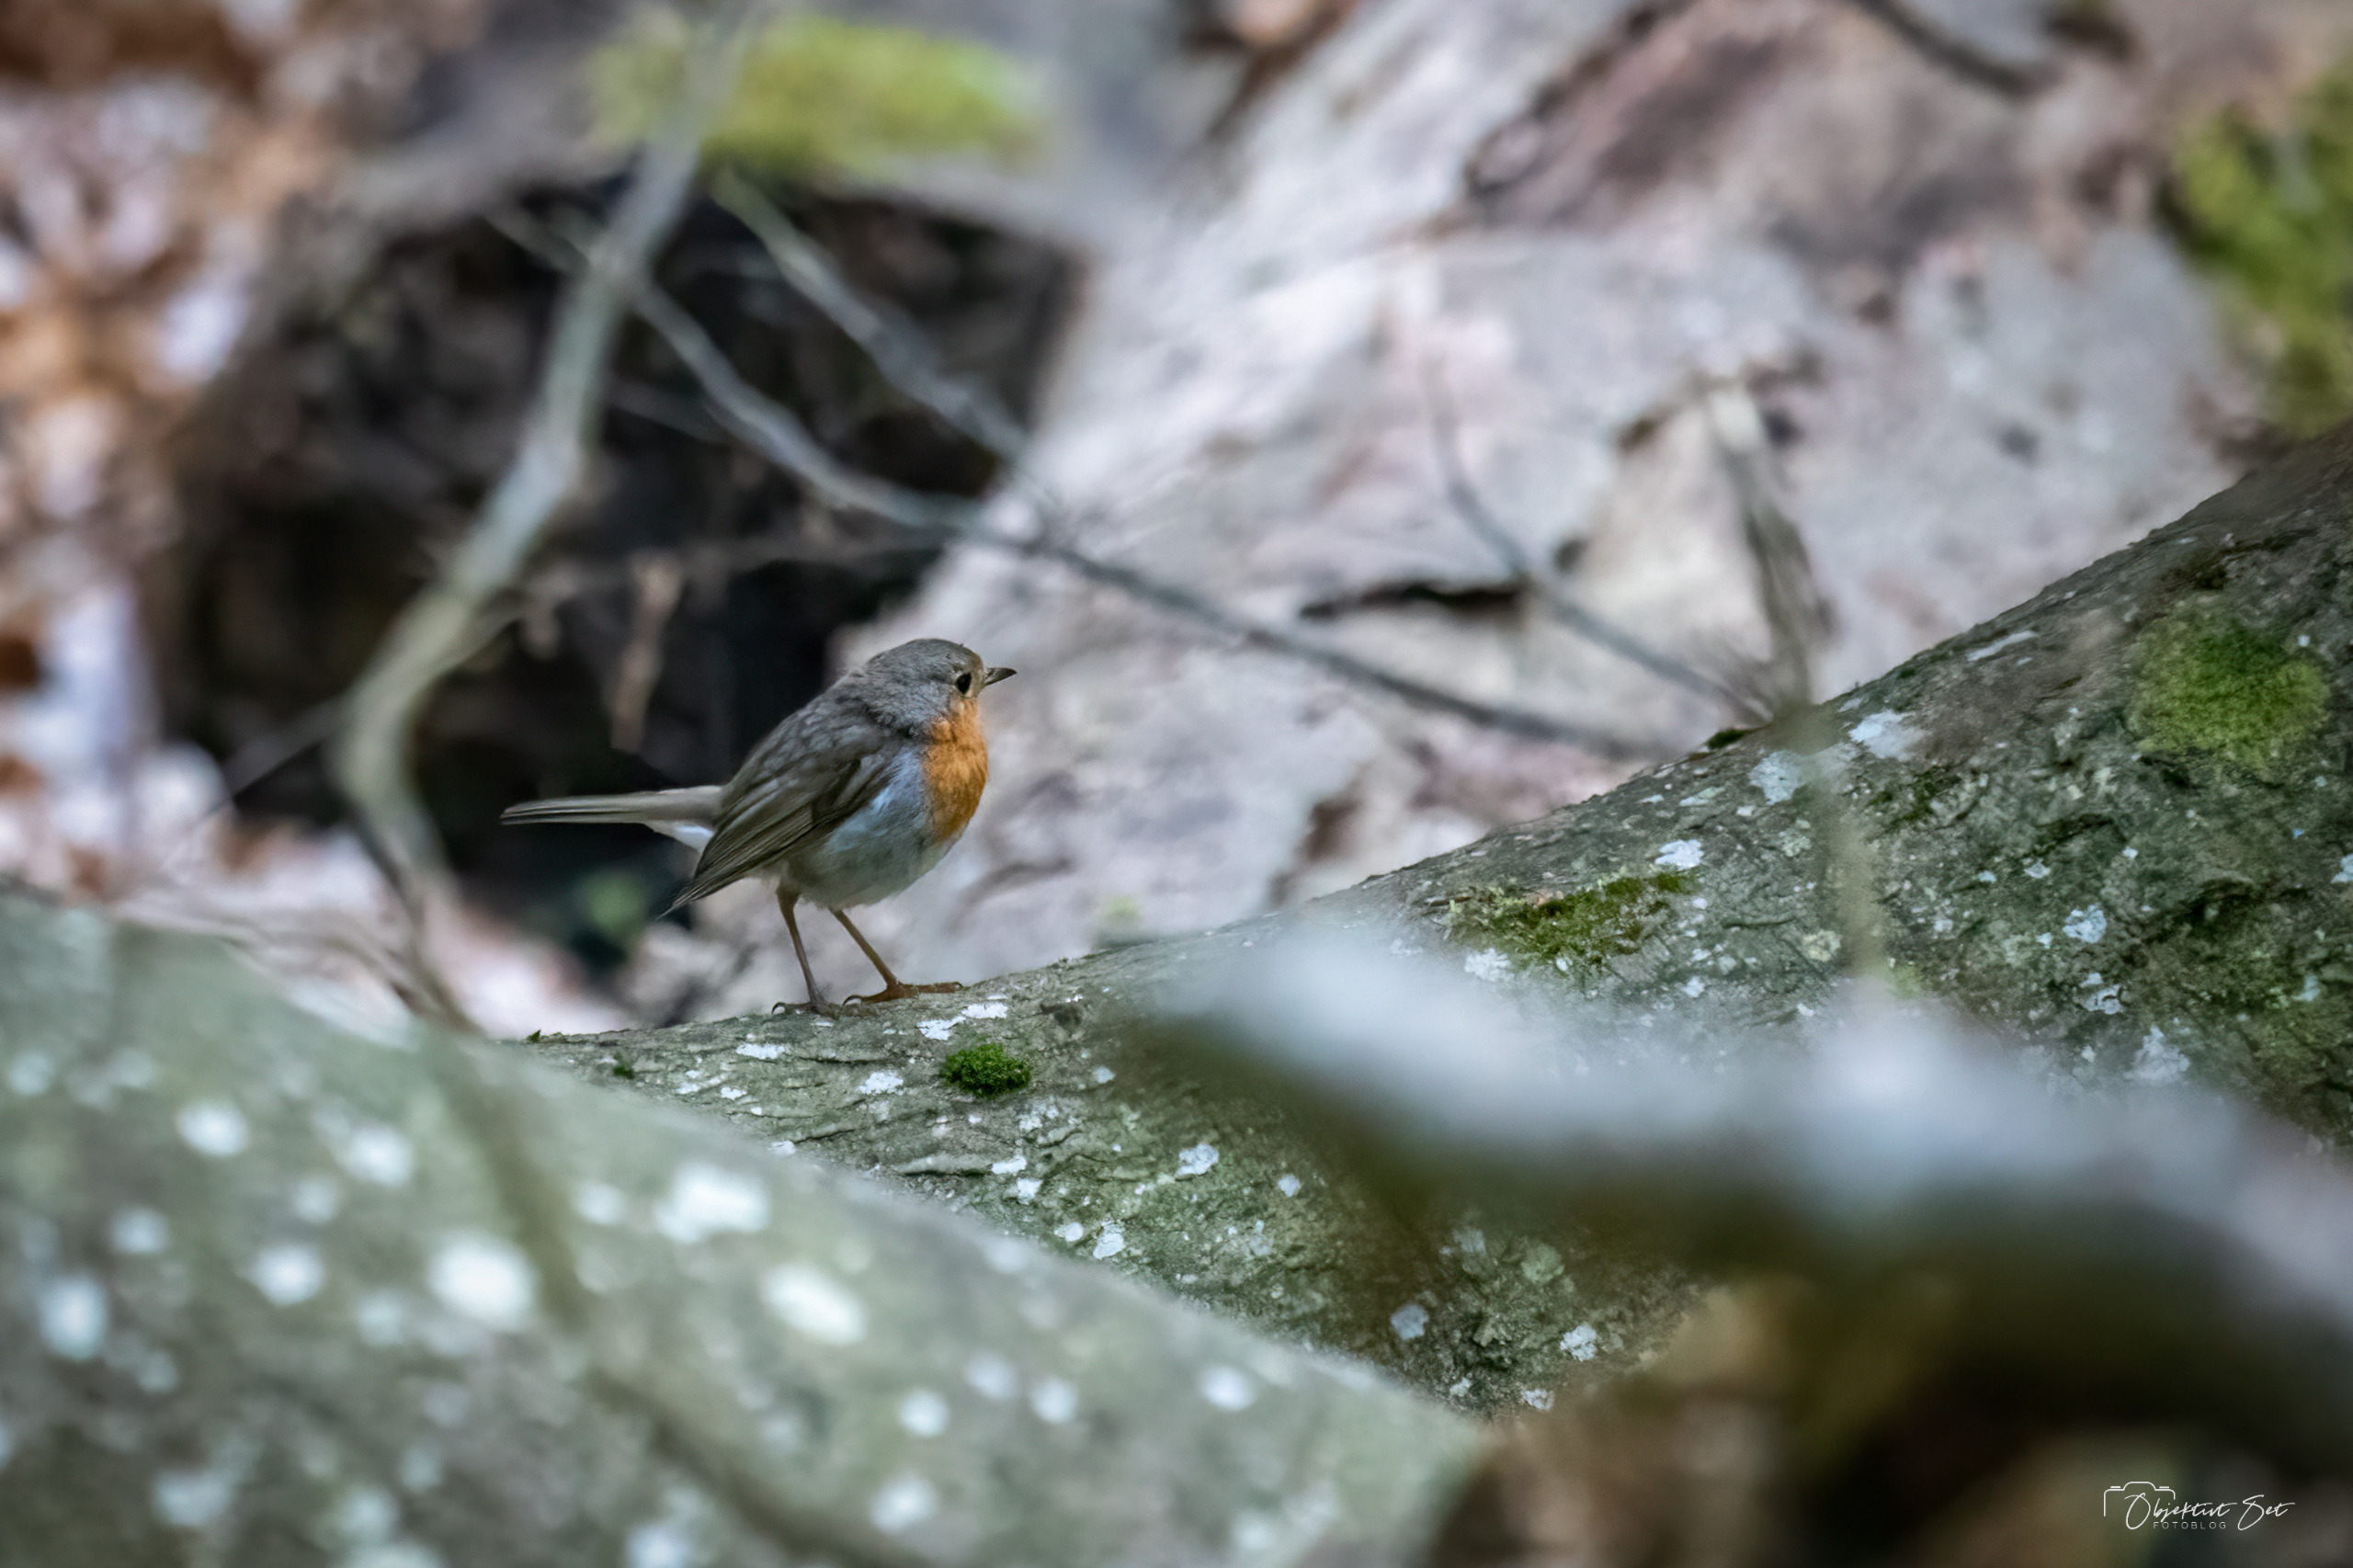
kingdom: Animalia
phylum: Chordata
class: Aves
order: Passeriformes
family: Muscicapidae
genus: Erithacus
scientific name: Erithacus rubecula
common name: Rødhals/rødkælk
